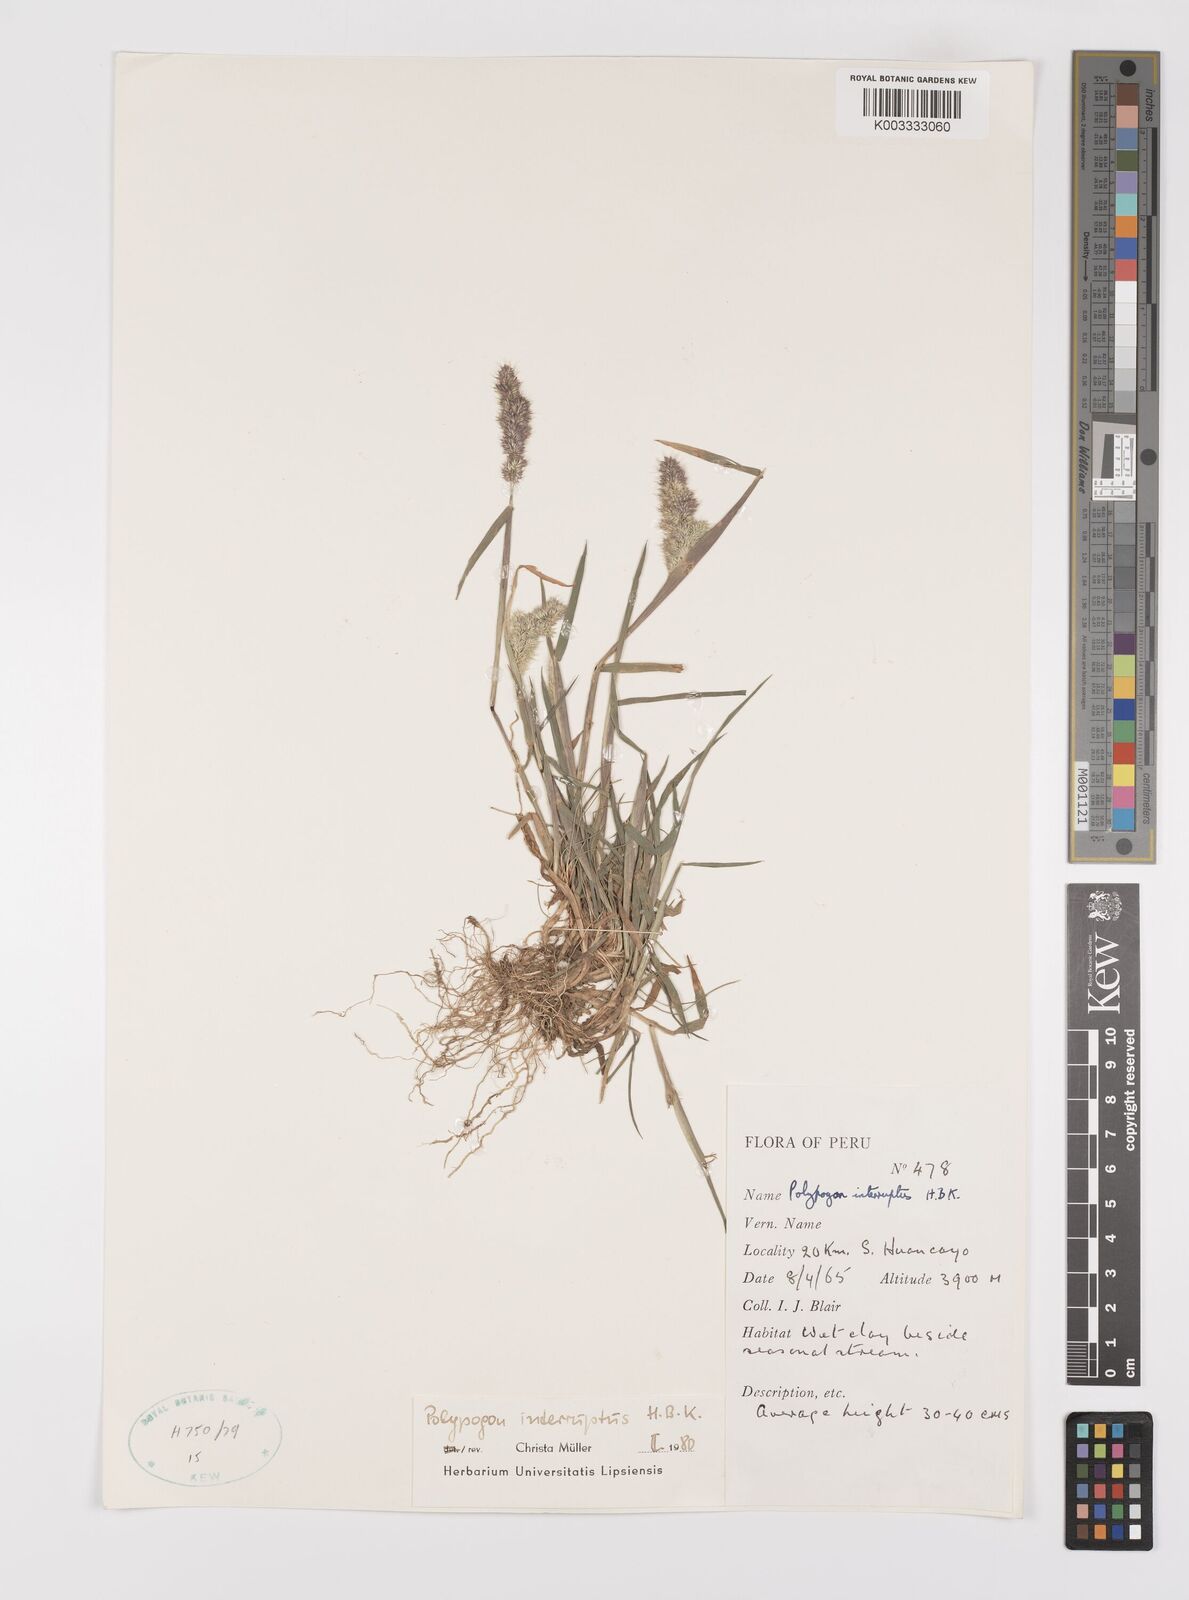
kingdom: Plantae
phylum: Tracheophyta
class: Liliopsida
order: Poales
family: Poaceae
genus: Polypogon
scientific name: Polypogon interruptus
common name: Ditch polypogon
